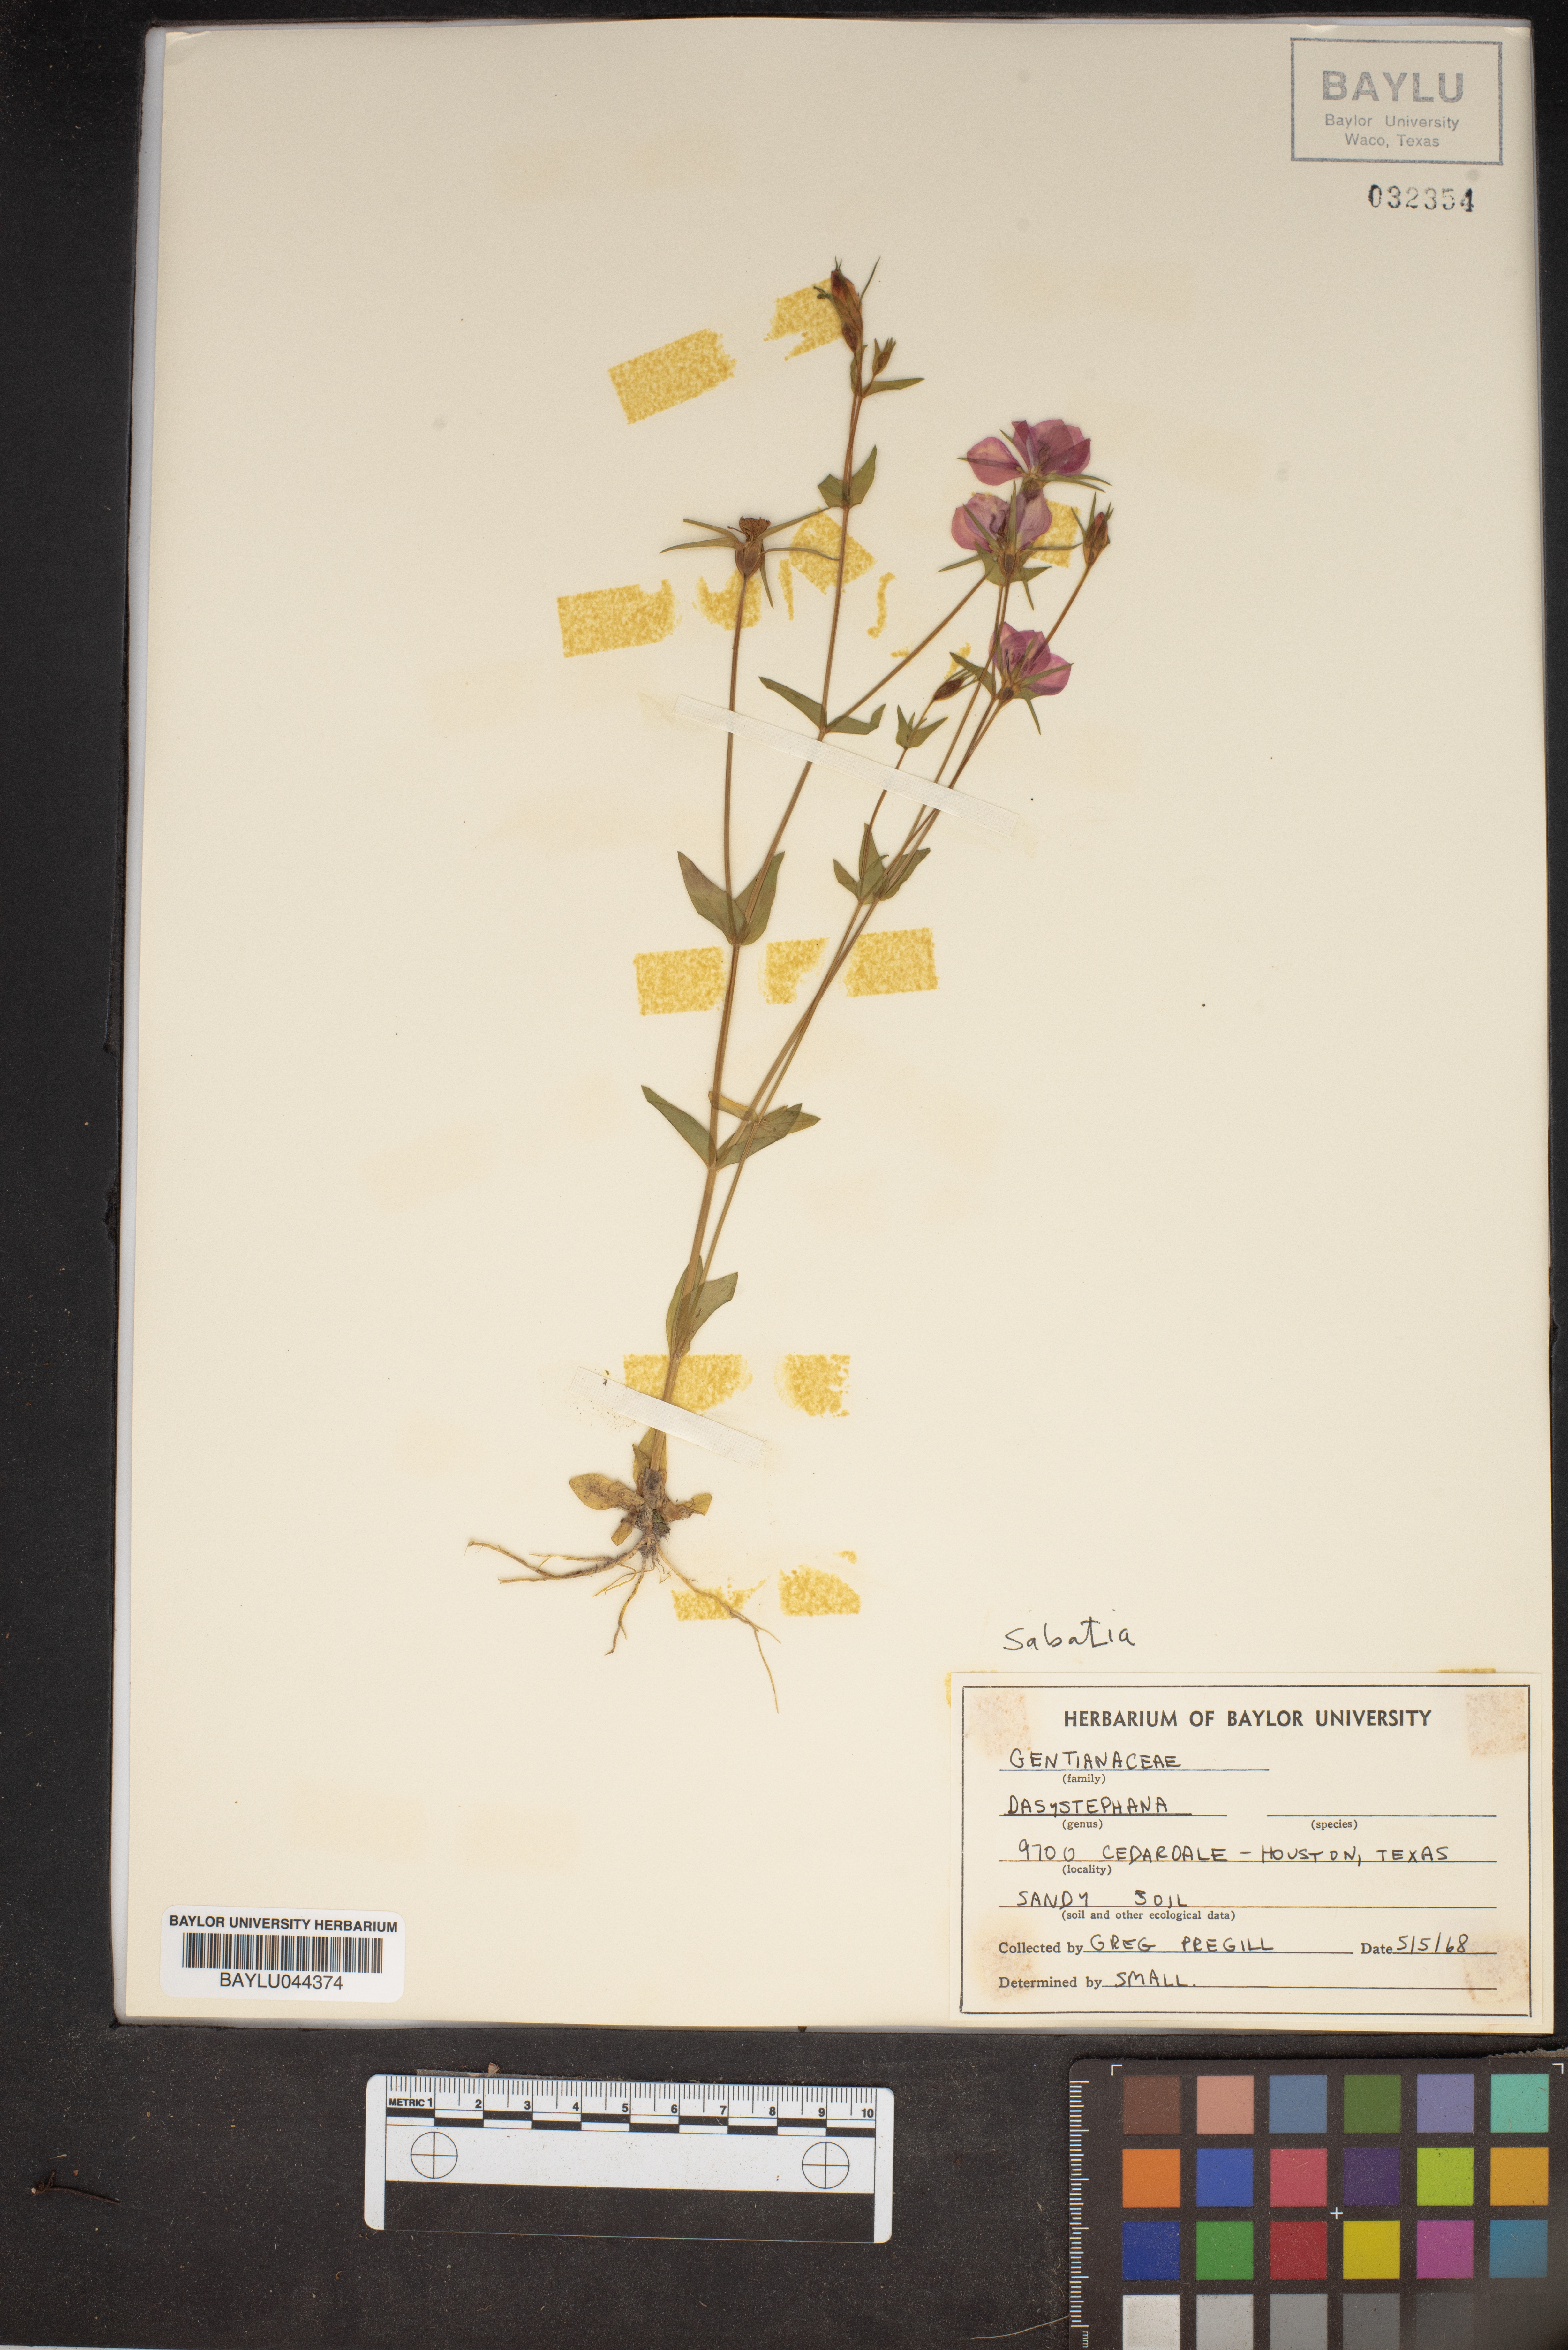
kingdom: Plantae
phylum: Tracheophyta
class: Magnoliopsida
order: Gentianales
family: Gentianaceae
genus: Gentiana
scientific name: Gentiana
